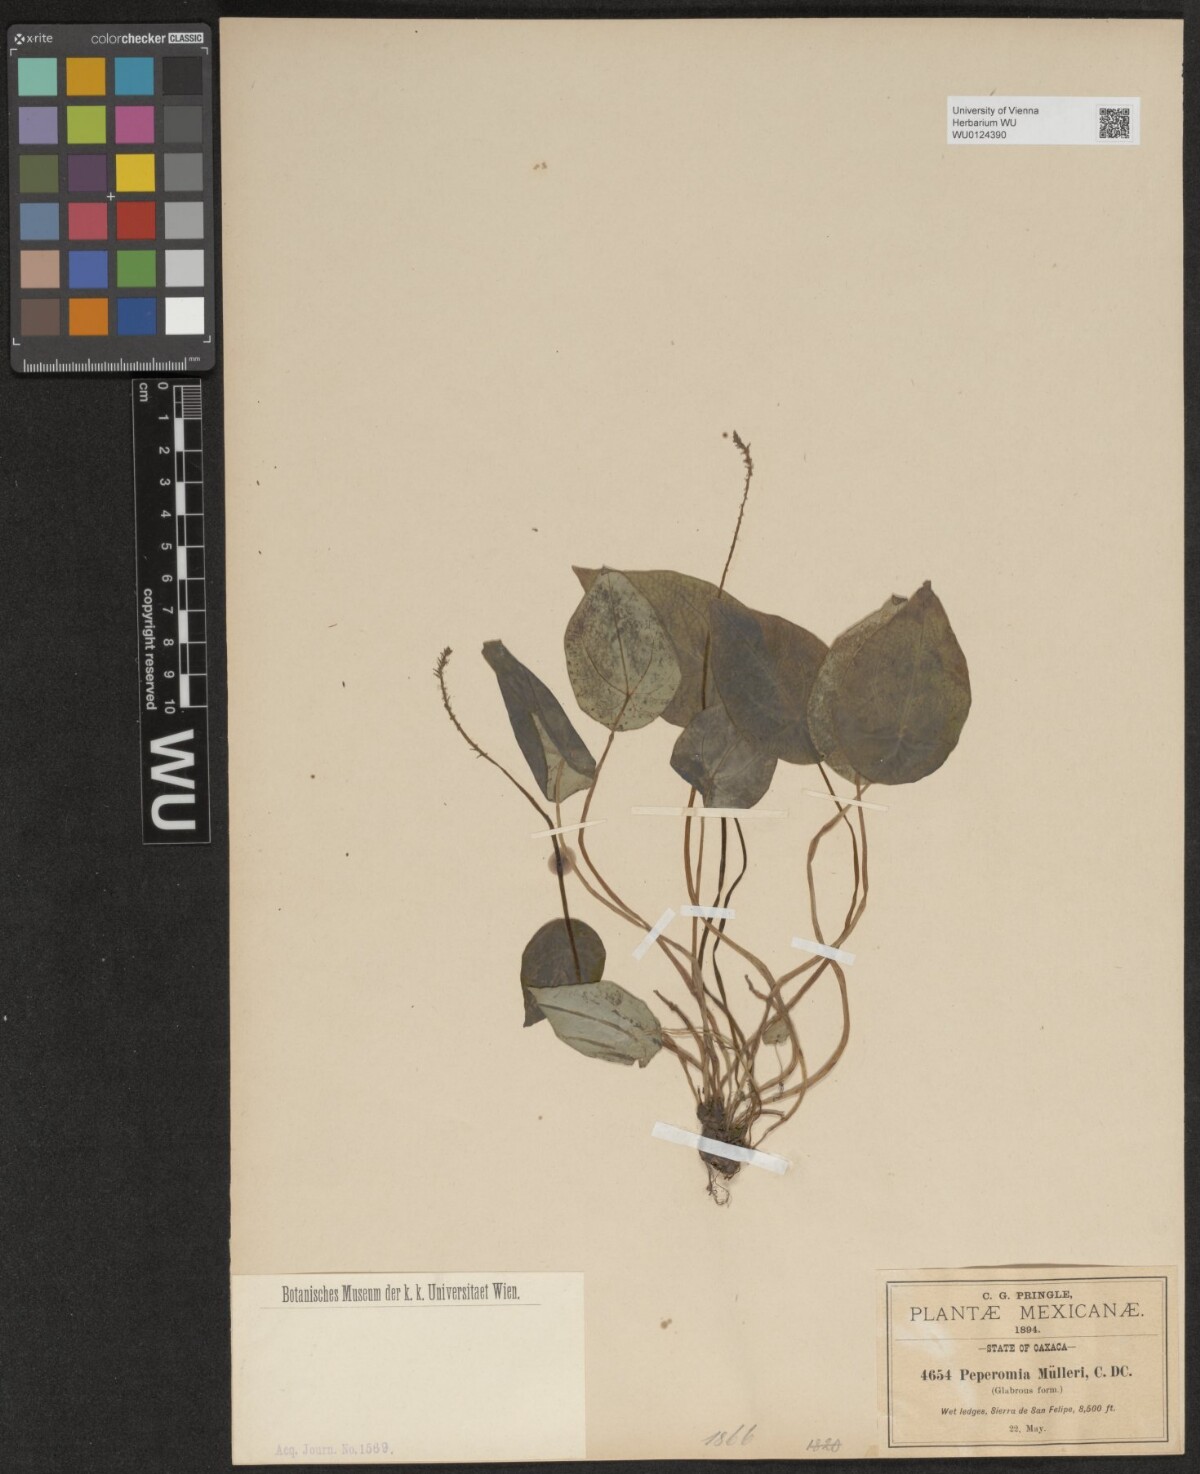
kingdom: Plantae
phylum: Tracheophyta
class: Magnoliopsida
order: Piperales
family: Piperaceae
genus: Peperomia
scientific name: Peperomia muelleri
